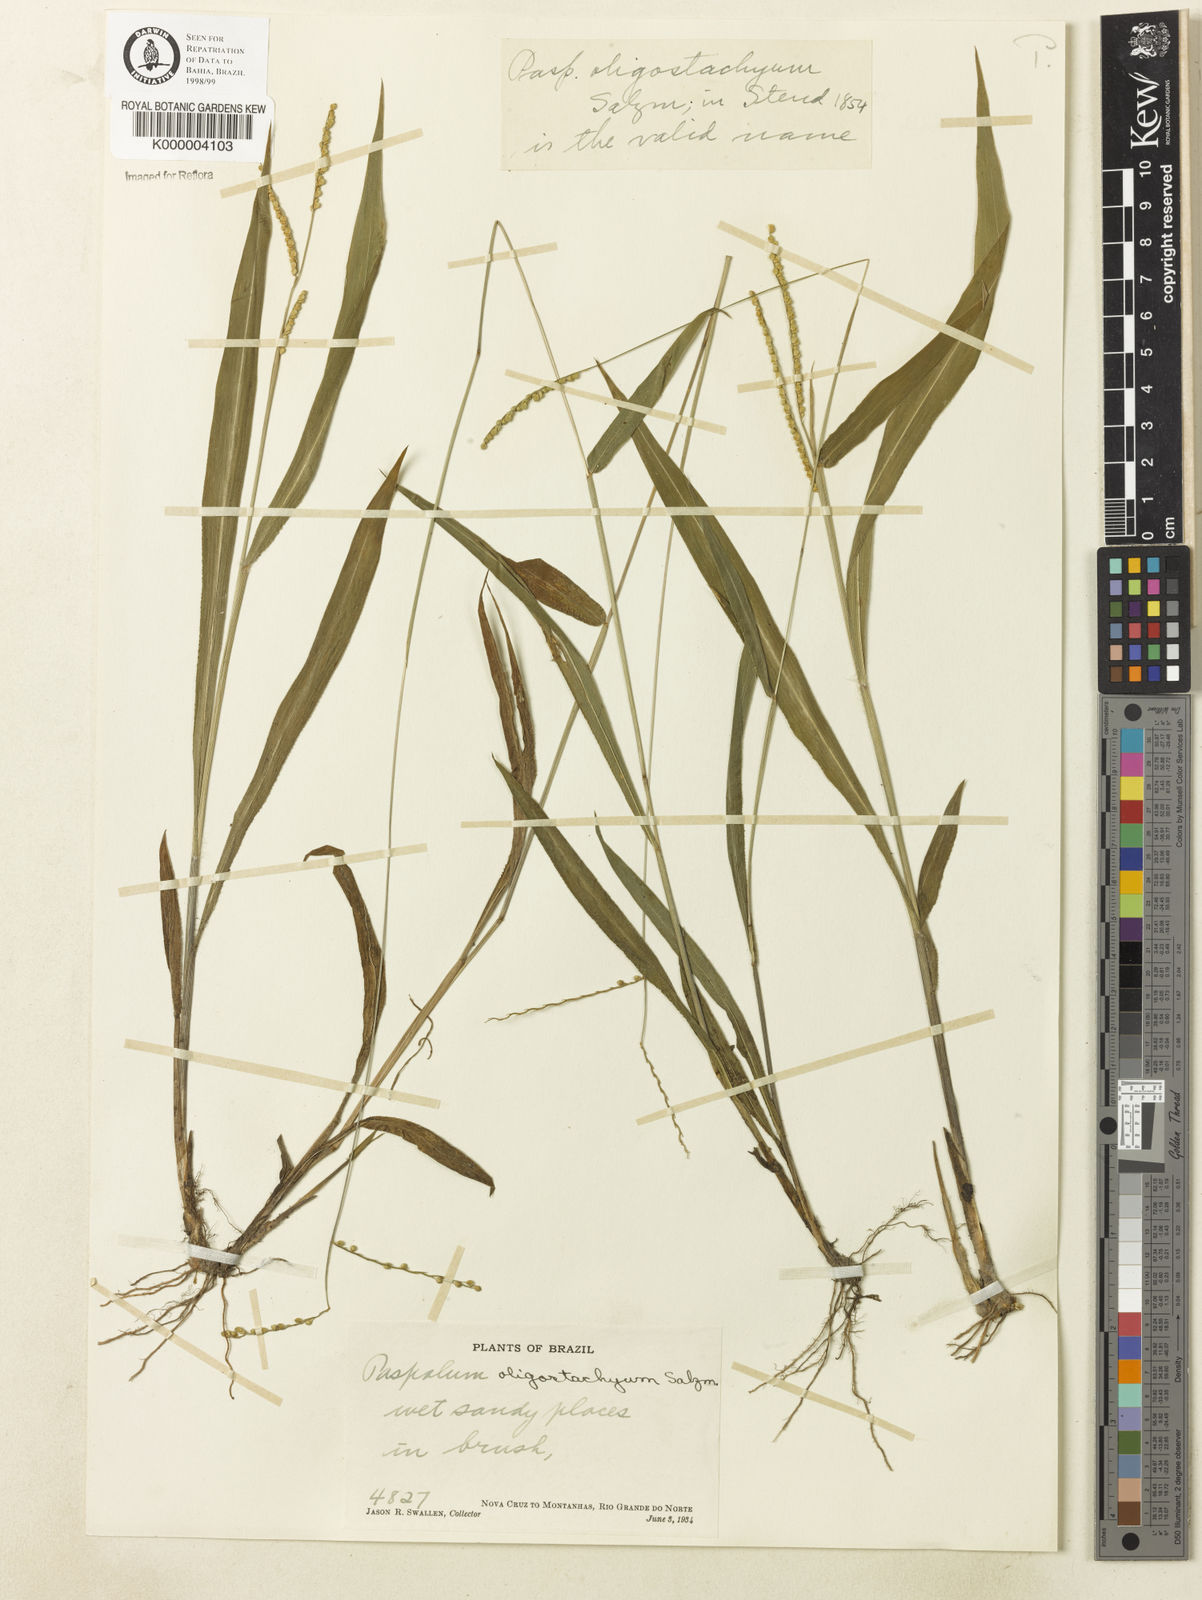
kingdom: Plantae
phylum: Tracheophyta
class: Liliopsida
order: Poales
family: Poaceae
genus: Paspalum
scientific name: Paspalum
